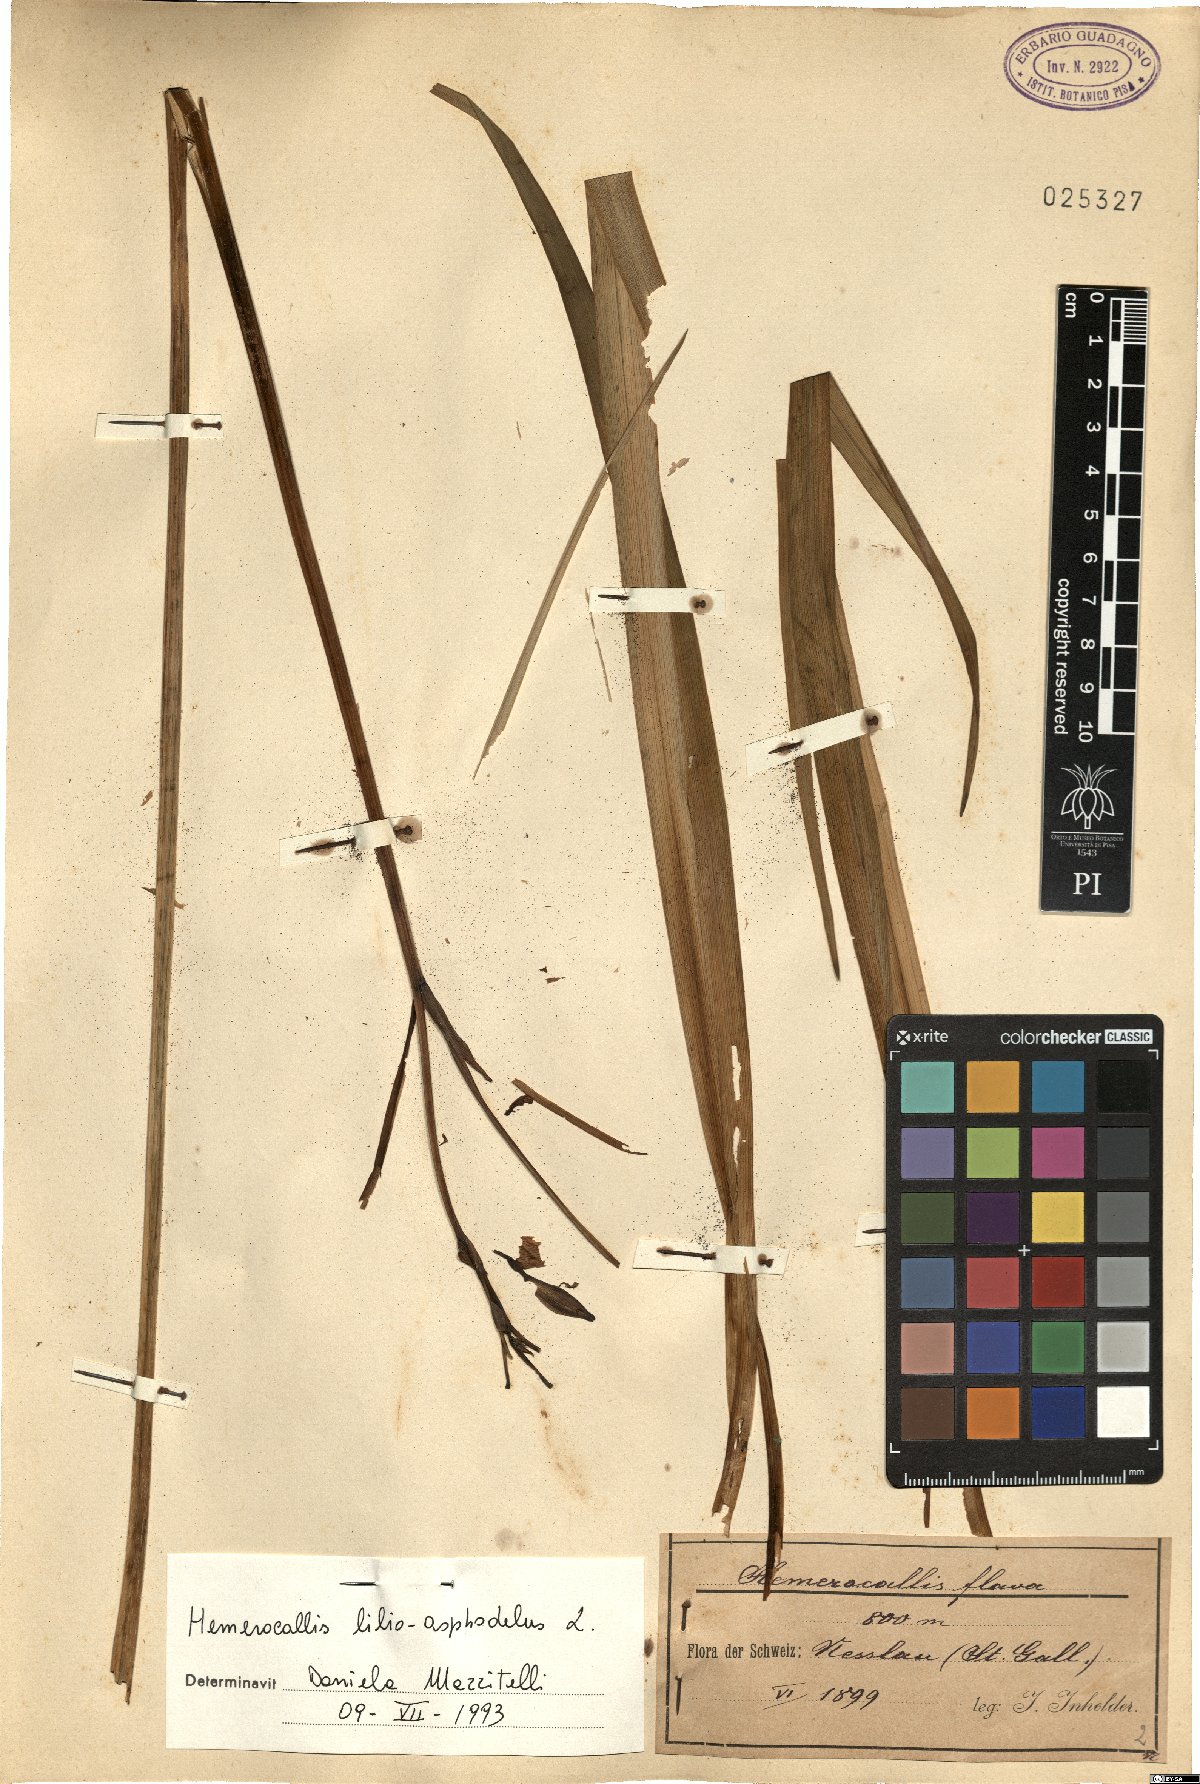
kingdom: Plantae
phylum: Tracheophyta
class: Liliopsida
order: Asparagales
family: Asphodelaceae
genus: Hemerocallis
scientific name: Hemerocallis lilioasphodelus
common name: Yellow day-lily
